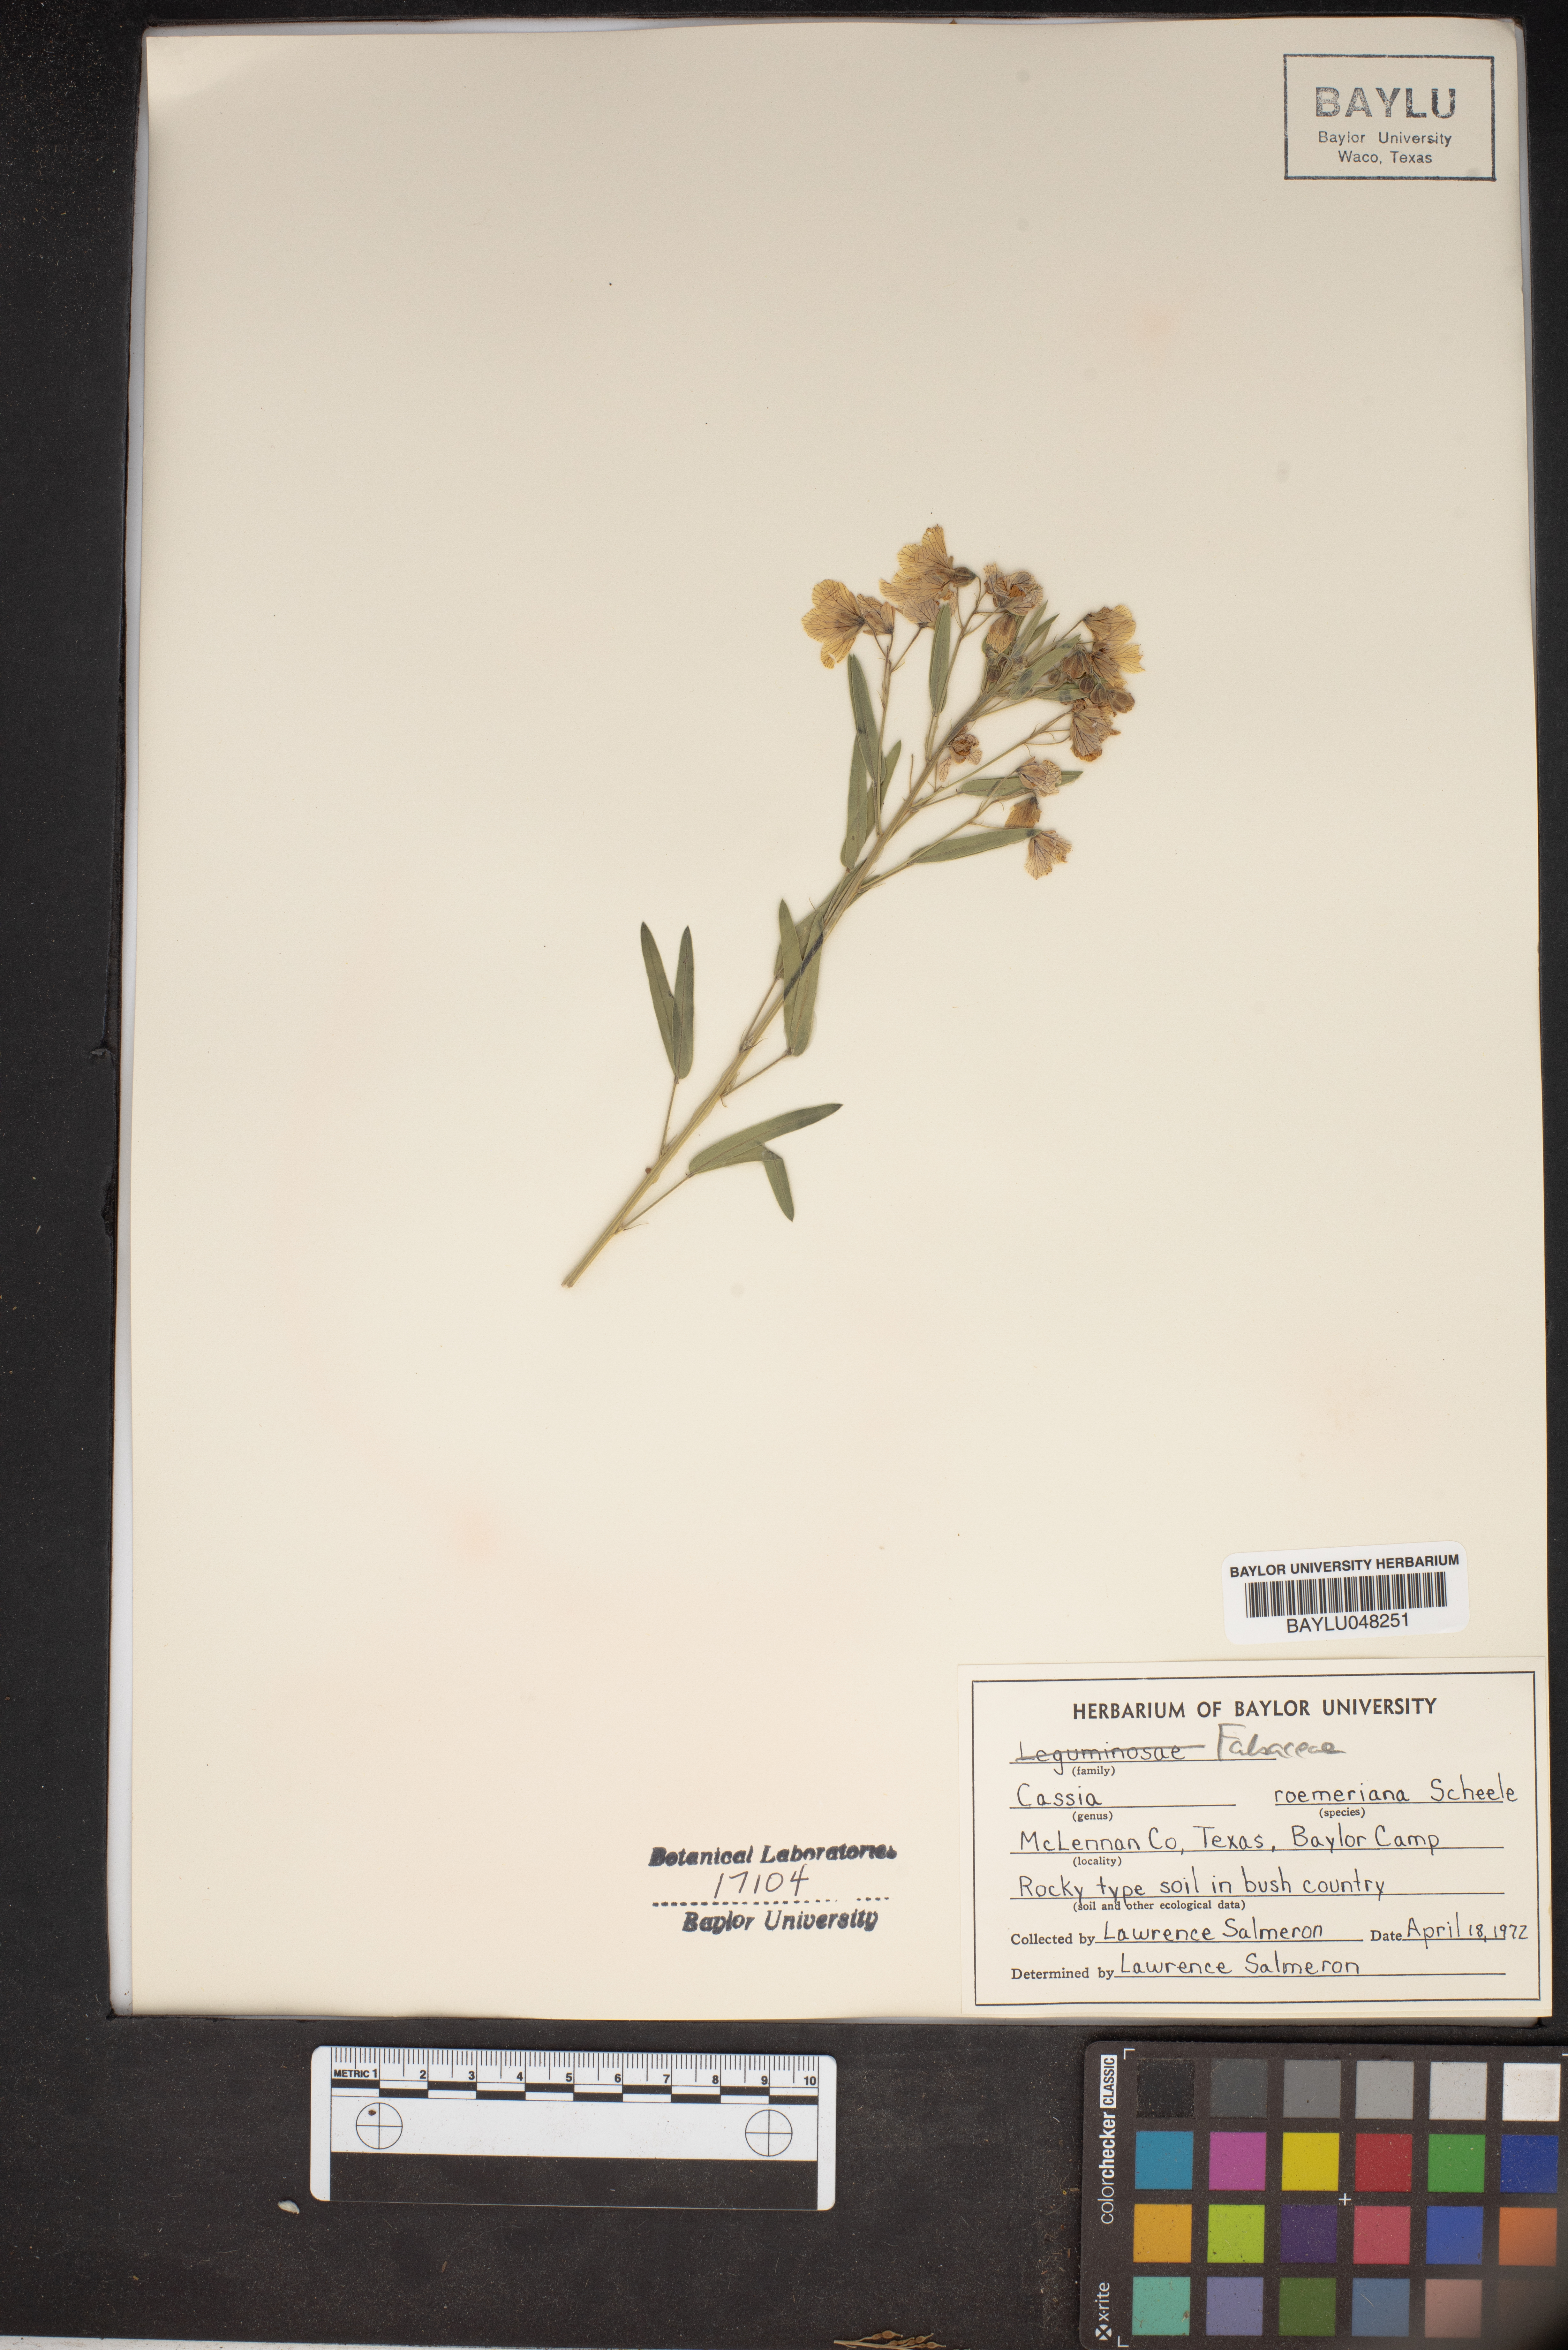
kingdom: Plantae
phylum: Tracheophyta
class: Magnoliopsida
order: Fabales
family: Fabaceae
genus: Senna
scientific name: Senna roemeriana
